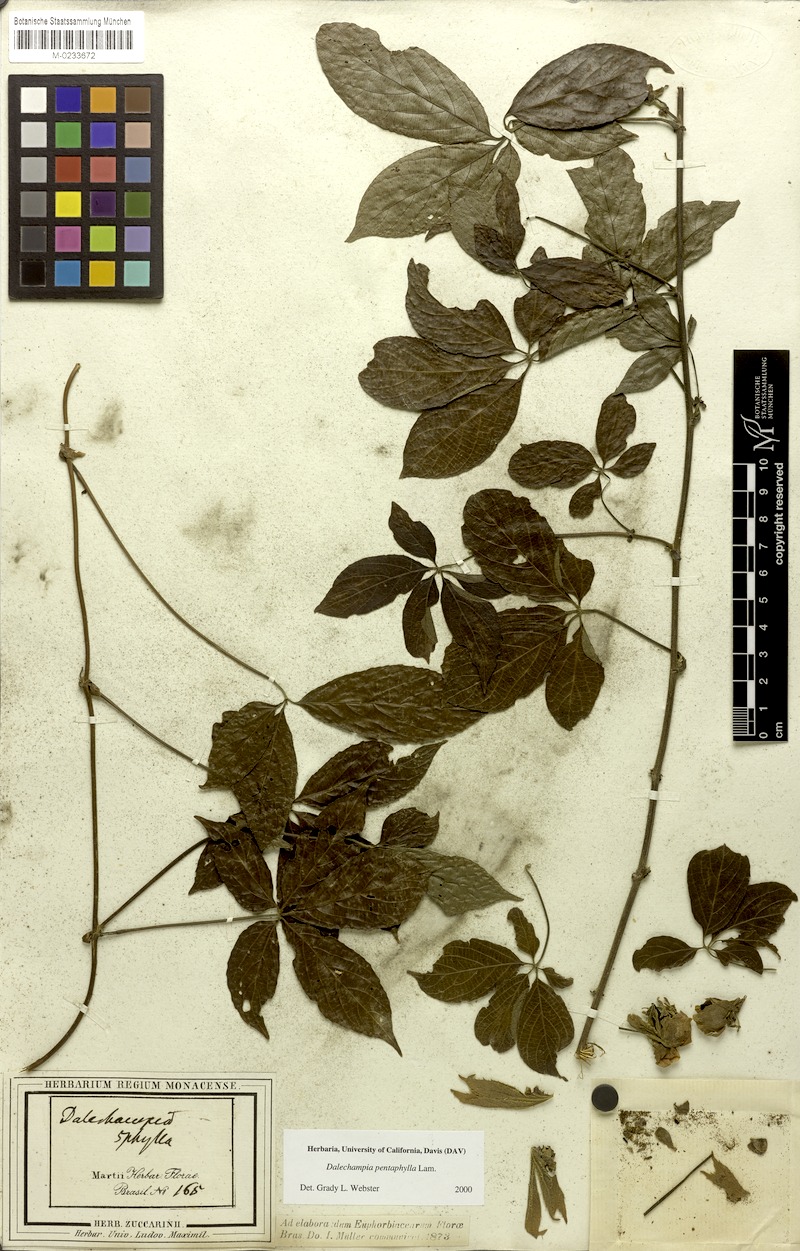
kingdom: Plantae
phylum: Tracheophyta
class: Magnoliopsida
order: Malpighiales
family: Euphorbiaceae
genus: Dalechampia
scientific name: Dalechampia pentaphylla
